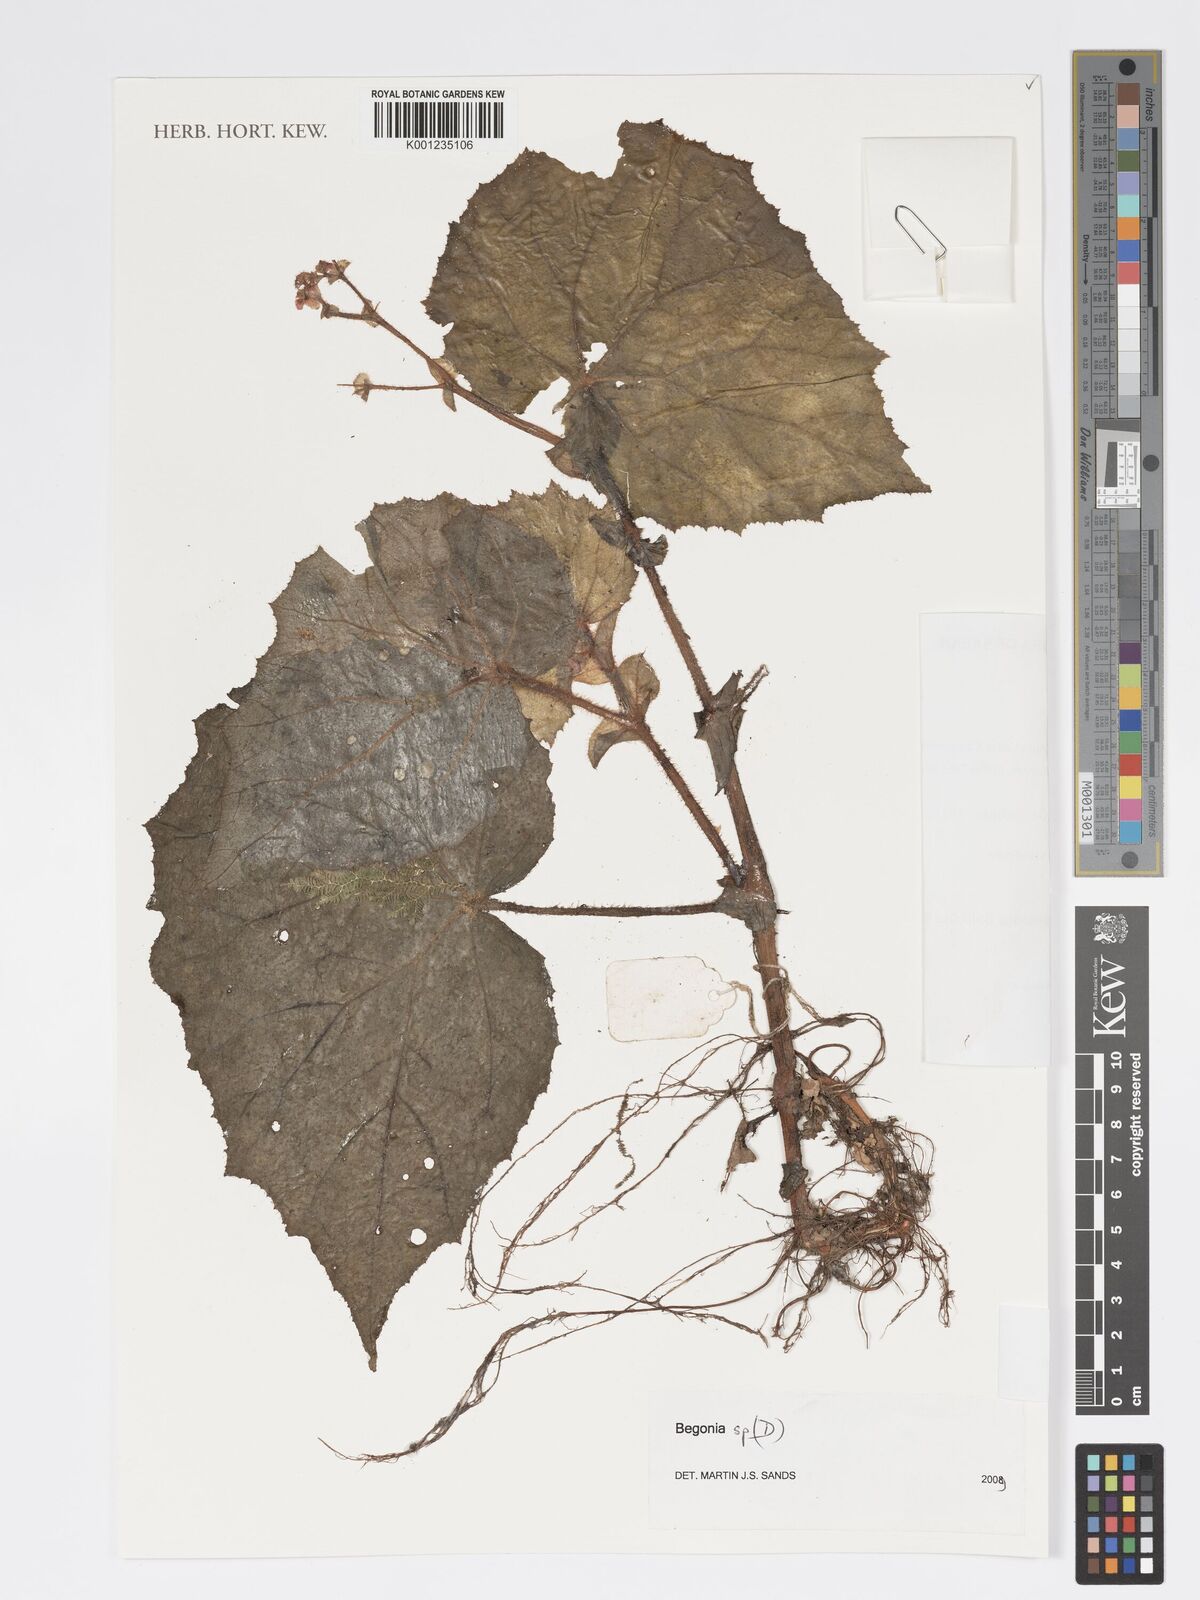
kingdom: Plantae
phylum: Tracheophyta
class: Magnoliopsida
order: Cucurbitales
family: Begoniaceae
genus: Begonia
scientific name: Begonia postarii
